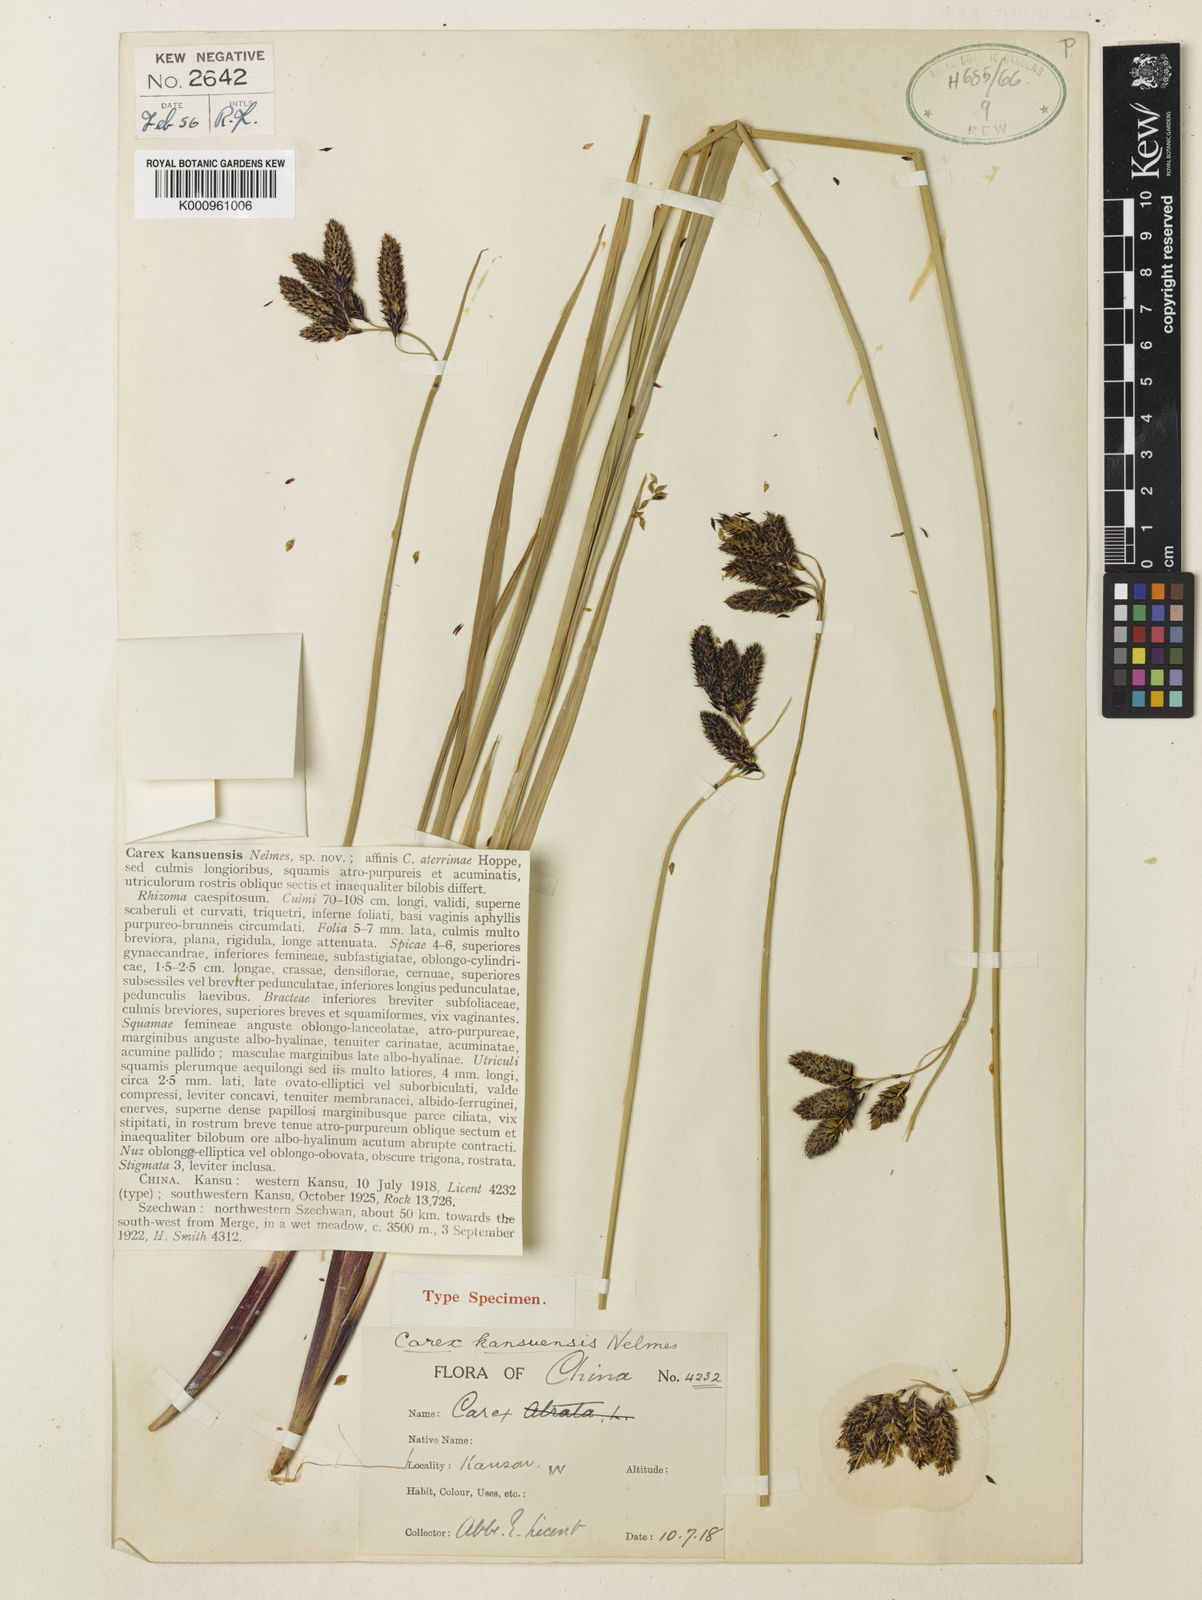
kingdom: Plantae
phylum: Tracheophyta
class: Liliopsida
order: Poales
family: Cyperaceae
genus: Carex
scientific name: Carex kansuensis
